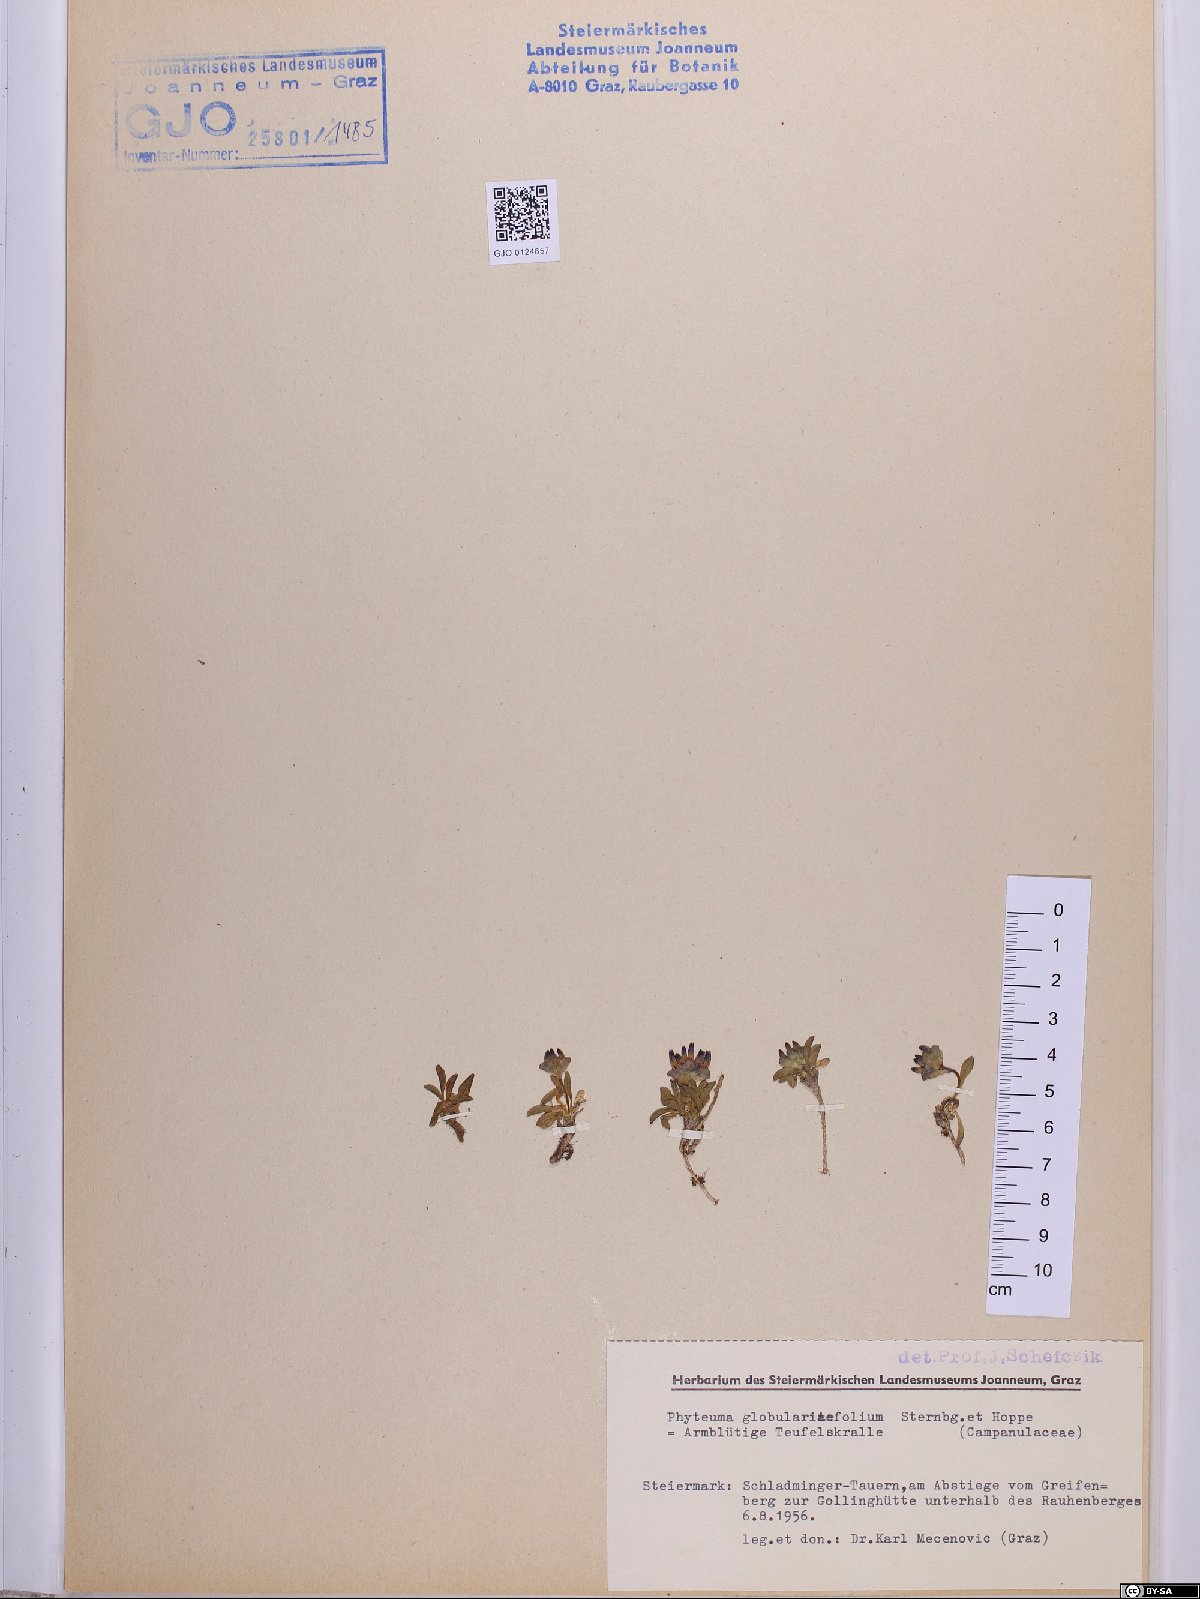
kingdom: Plantae
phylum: Tracheophyta
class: Magnoliopsida
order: Asterales
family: Campanulaceae
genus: Phyteuma
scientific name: Phyteuma globulariifolium
